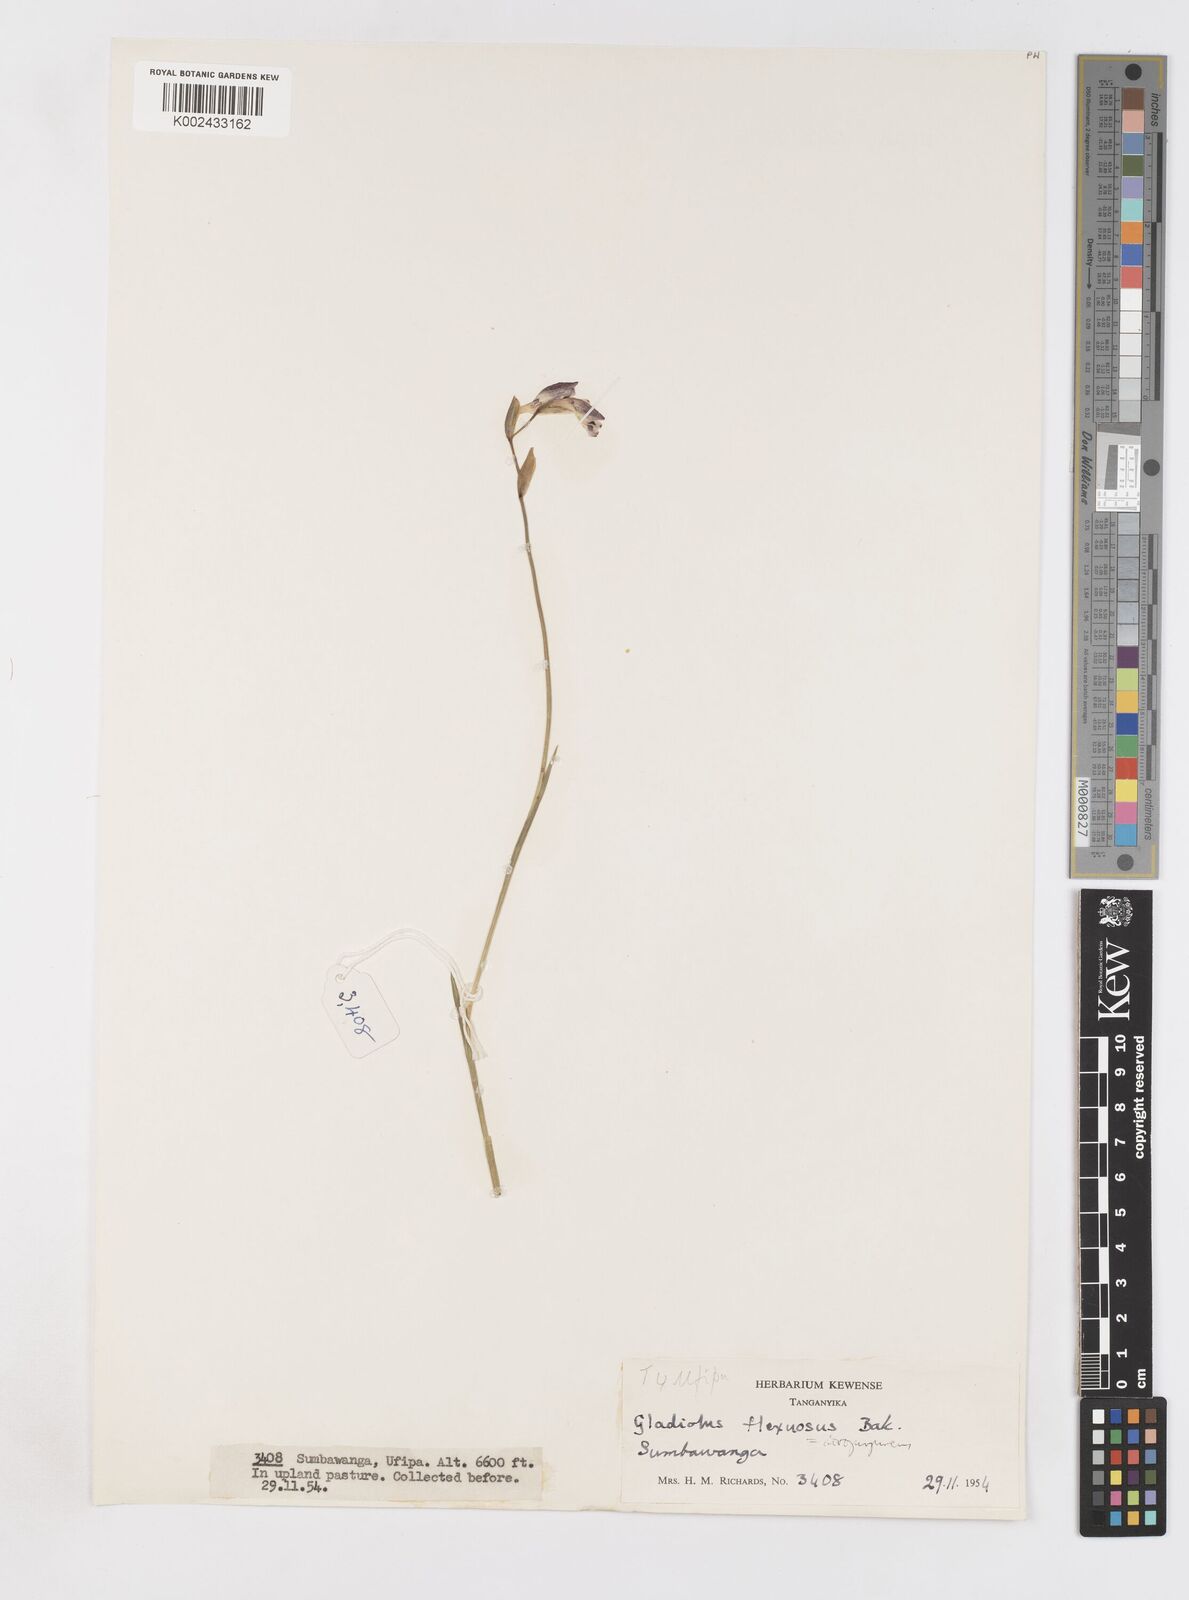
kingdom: Plantae
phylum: Tracheophyta
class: Liliopsida
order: Asparagales
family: Iridaceae
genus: Gladiolus
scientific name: Gladiolus atropurpureus
